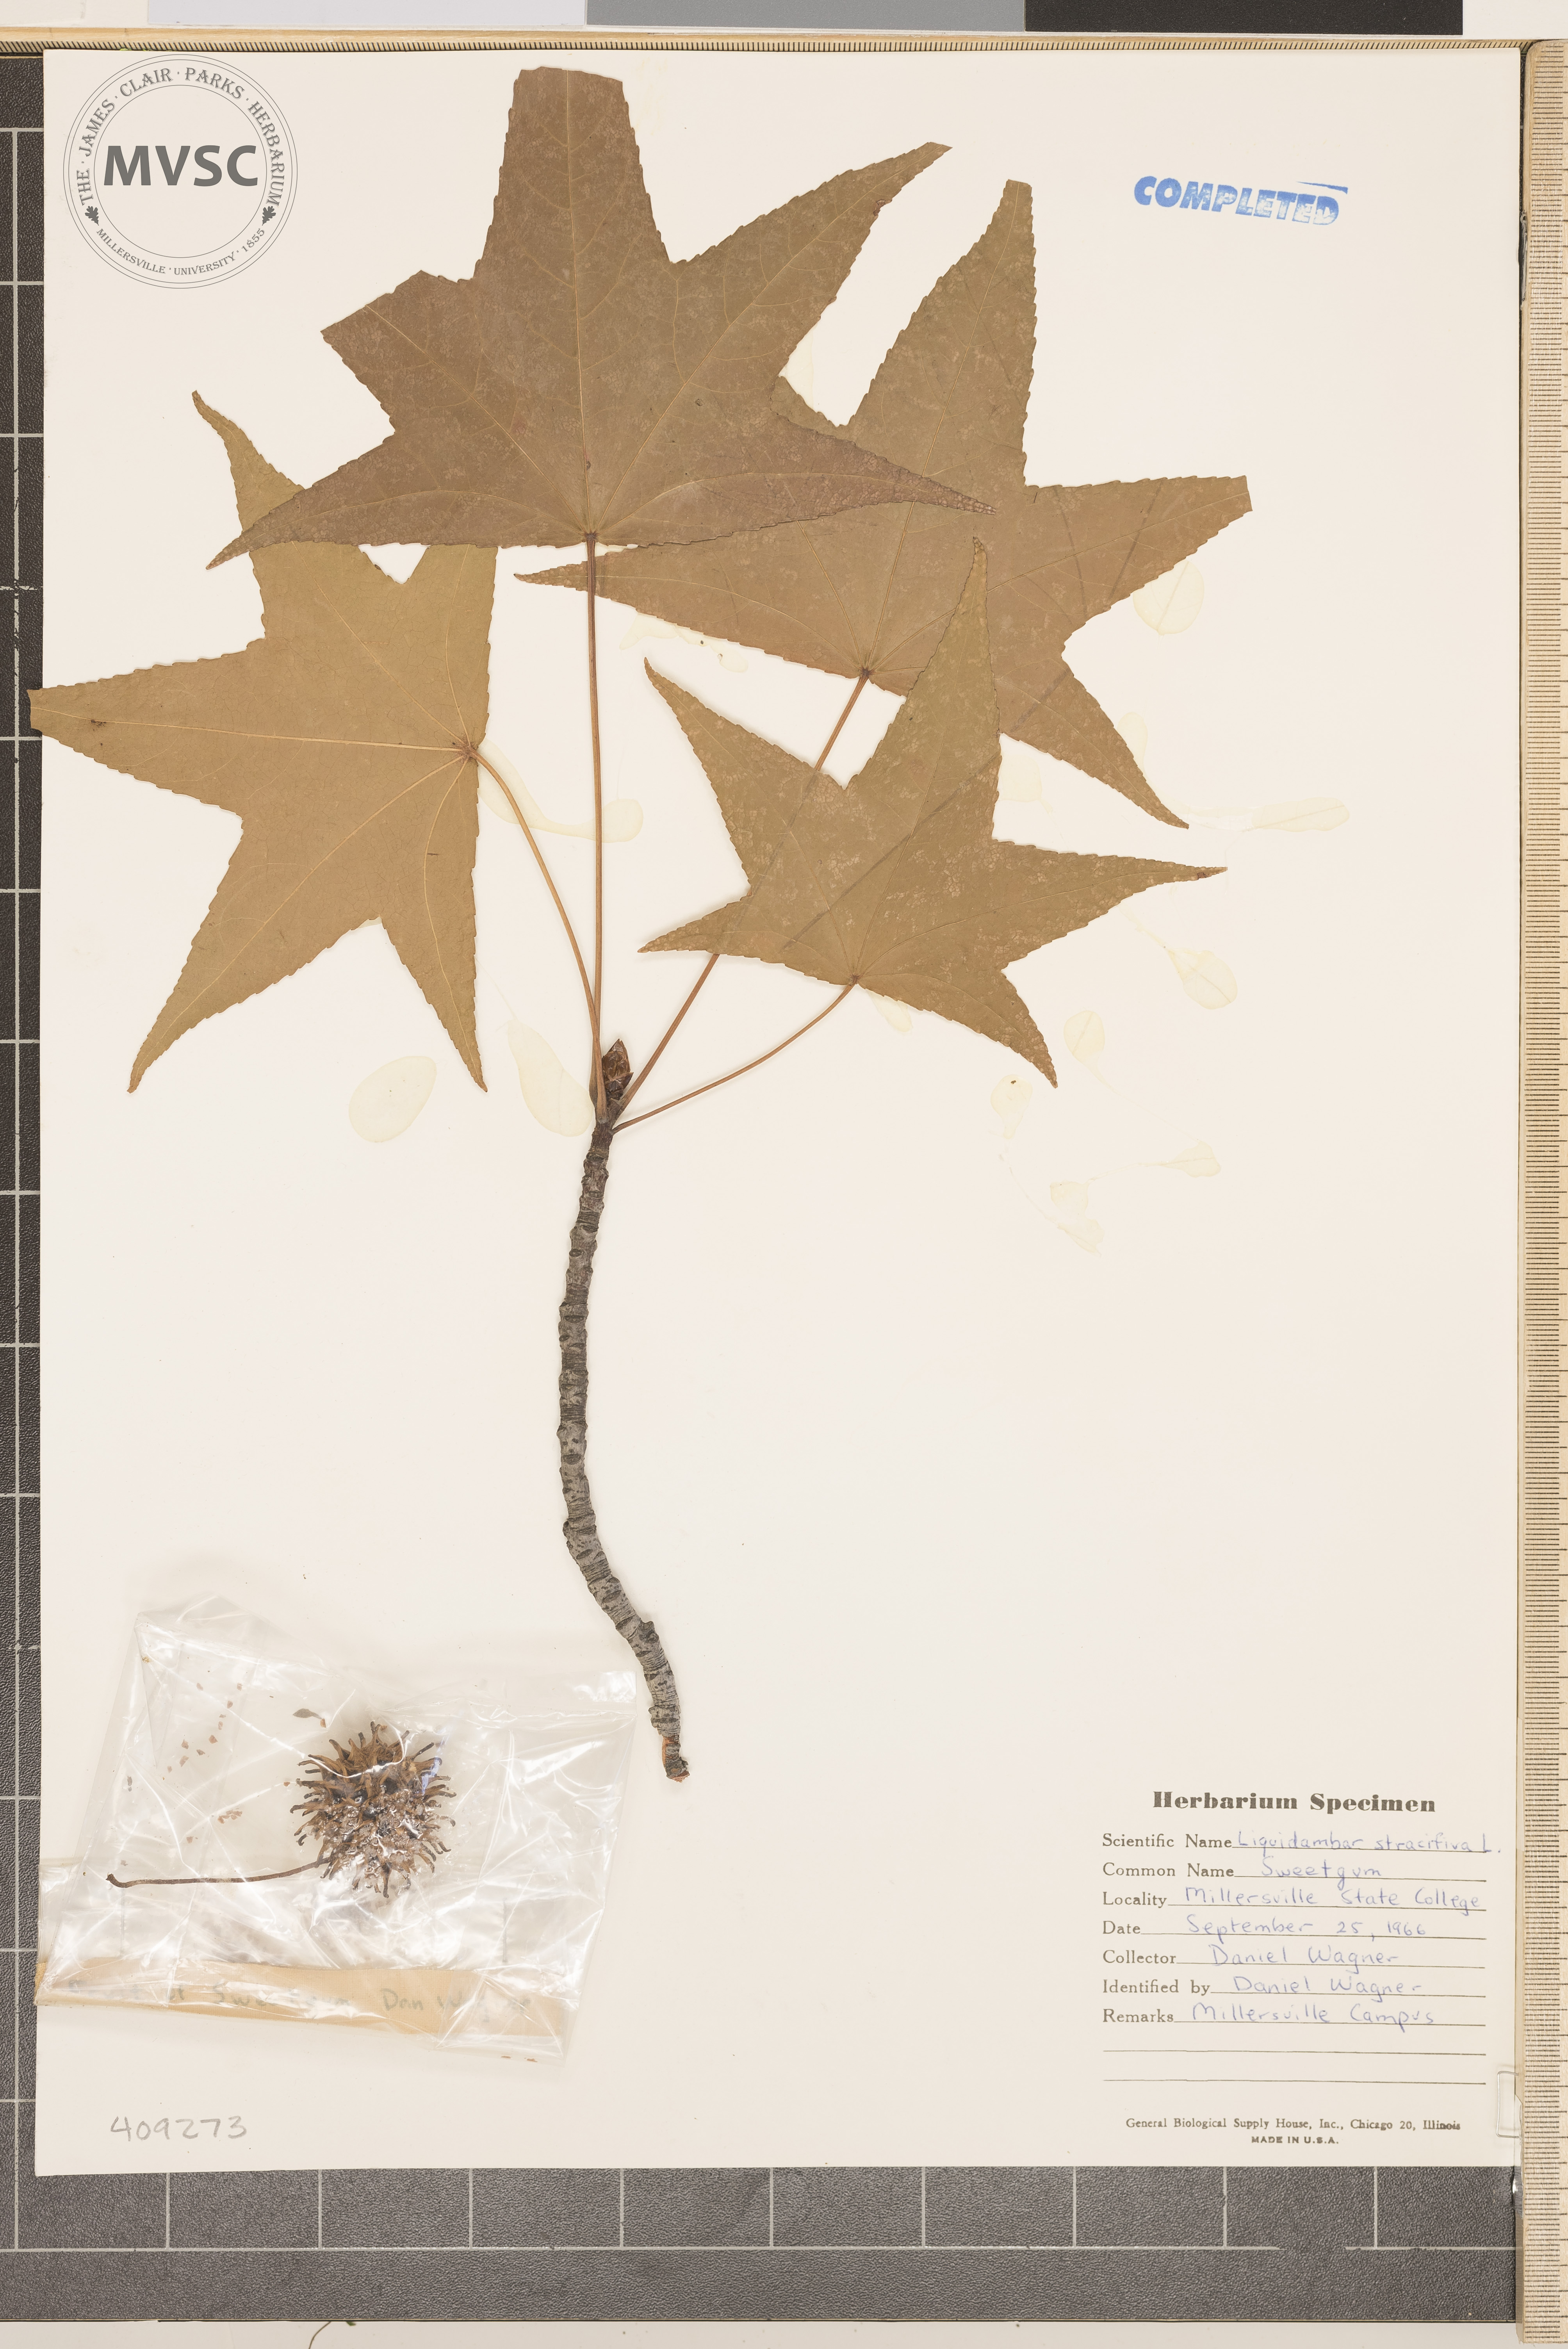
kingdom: Plantae
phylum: Tracheophyta
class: Magnoliopsida
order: Saxifragales
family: Altingiaceae
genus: Liquidambar
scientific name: Liquidambar styraciflua
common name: Sweet gum
